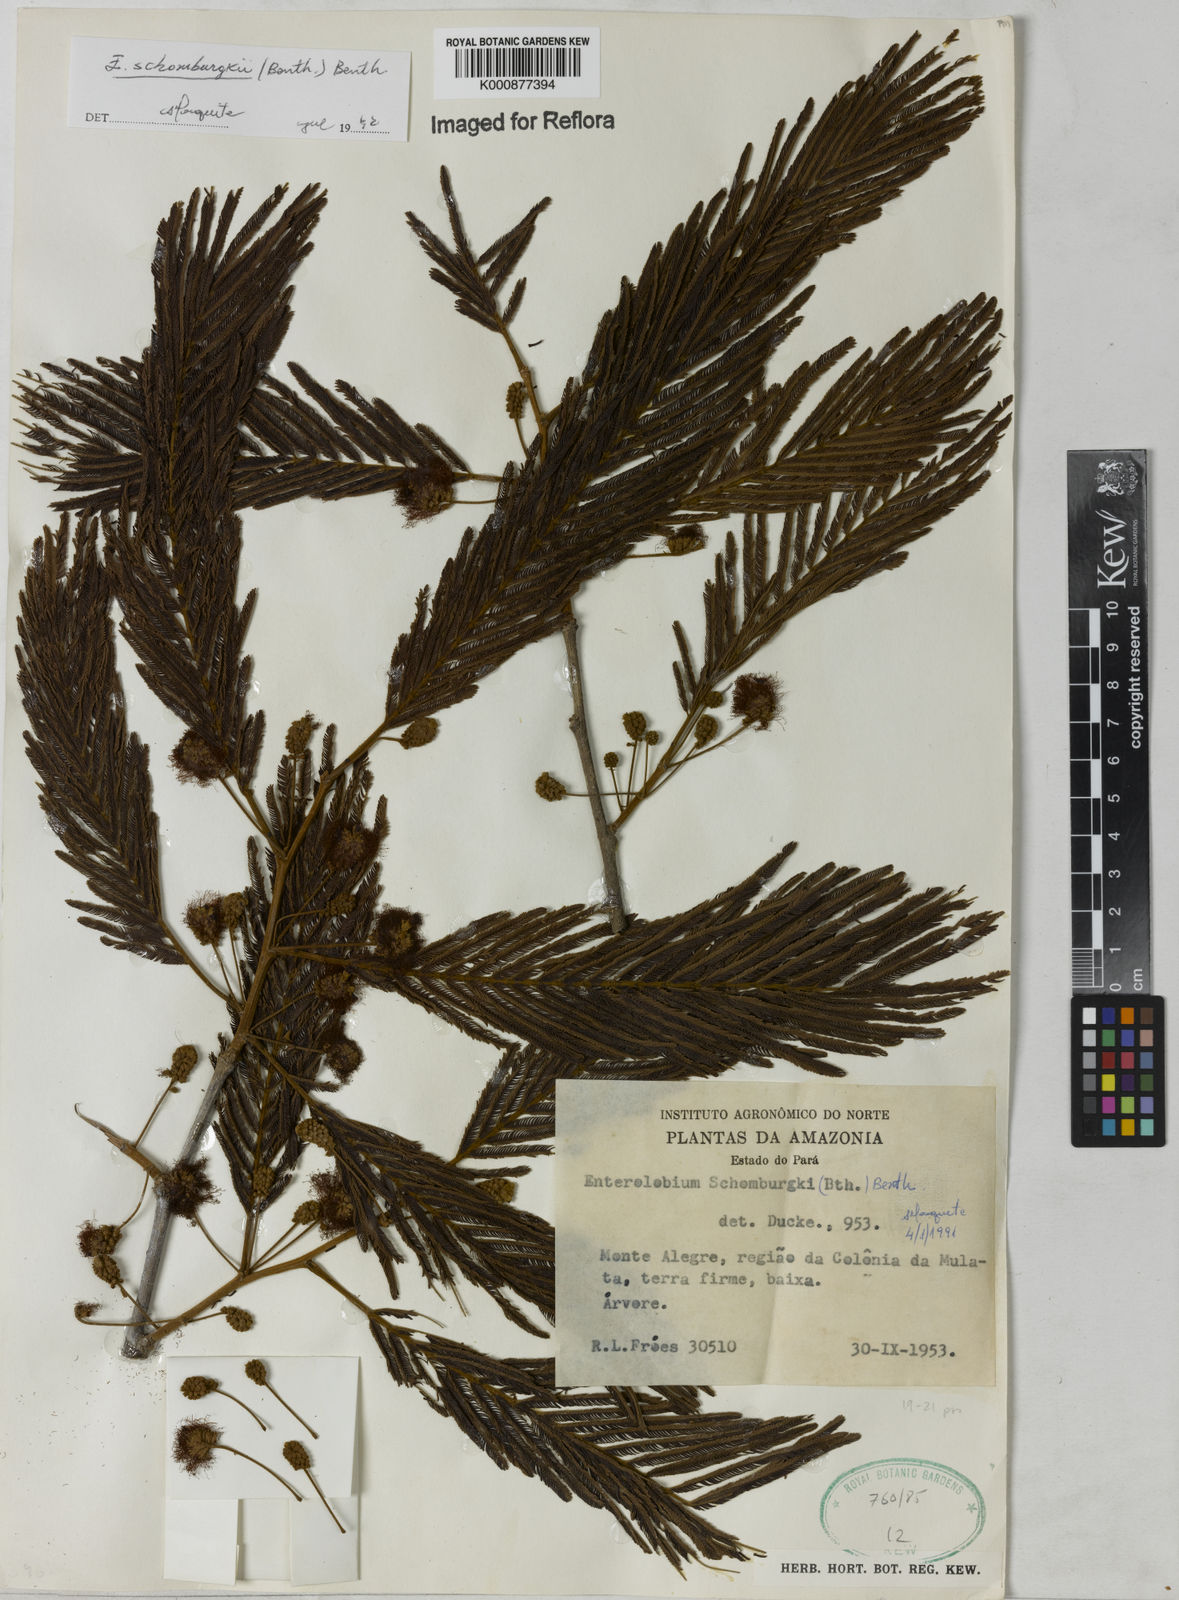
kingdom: Plantae
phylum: Tracheophyta
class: Magnoliopsida
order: Fabales
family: Fabaceae
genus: Enterolobium
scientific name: Enterolobium schomburgkii
